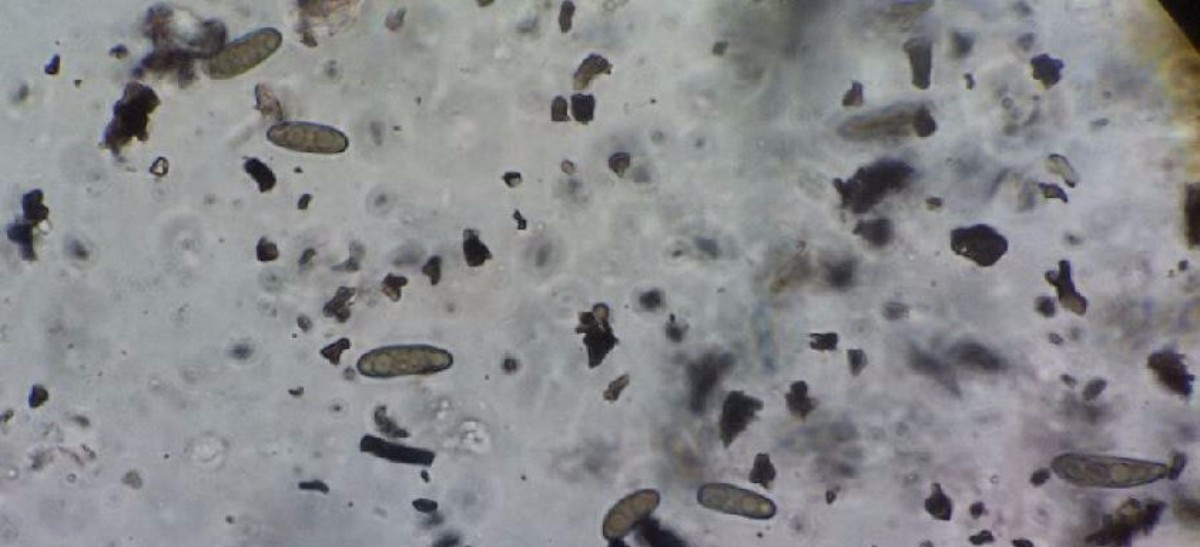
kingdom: Fungi
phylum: Ascomycota
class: Sordariomycetes
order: Xylariales
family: Xylariaceae
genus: Nemania
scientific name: Nemania serpens
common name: almindelig kuldyne
